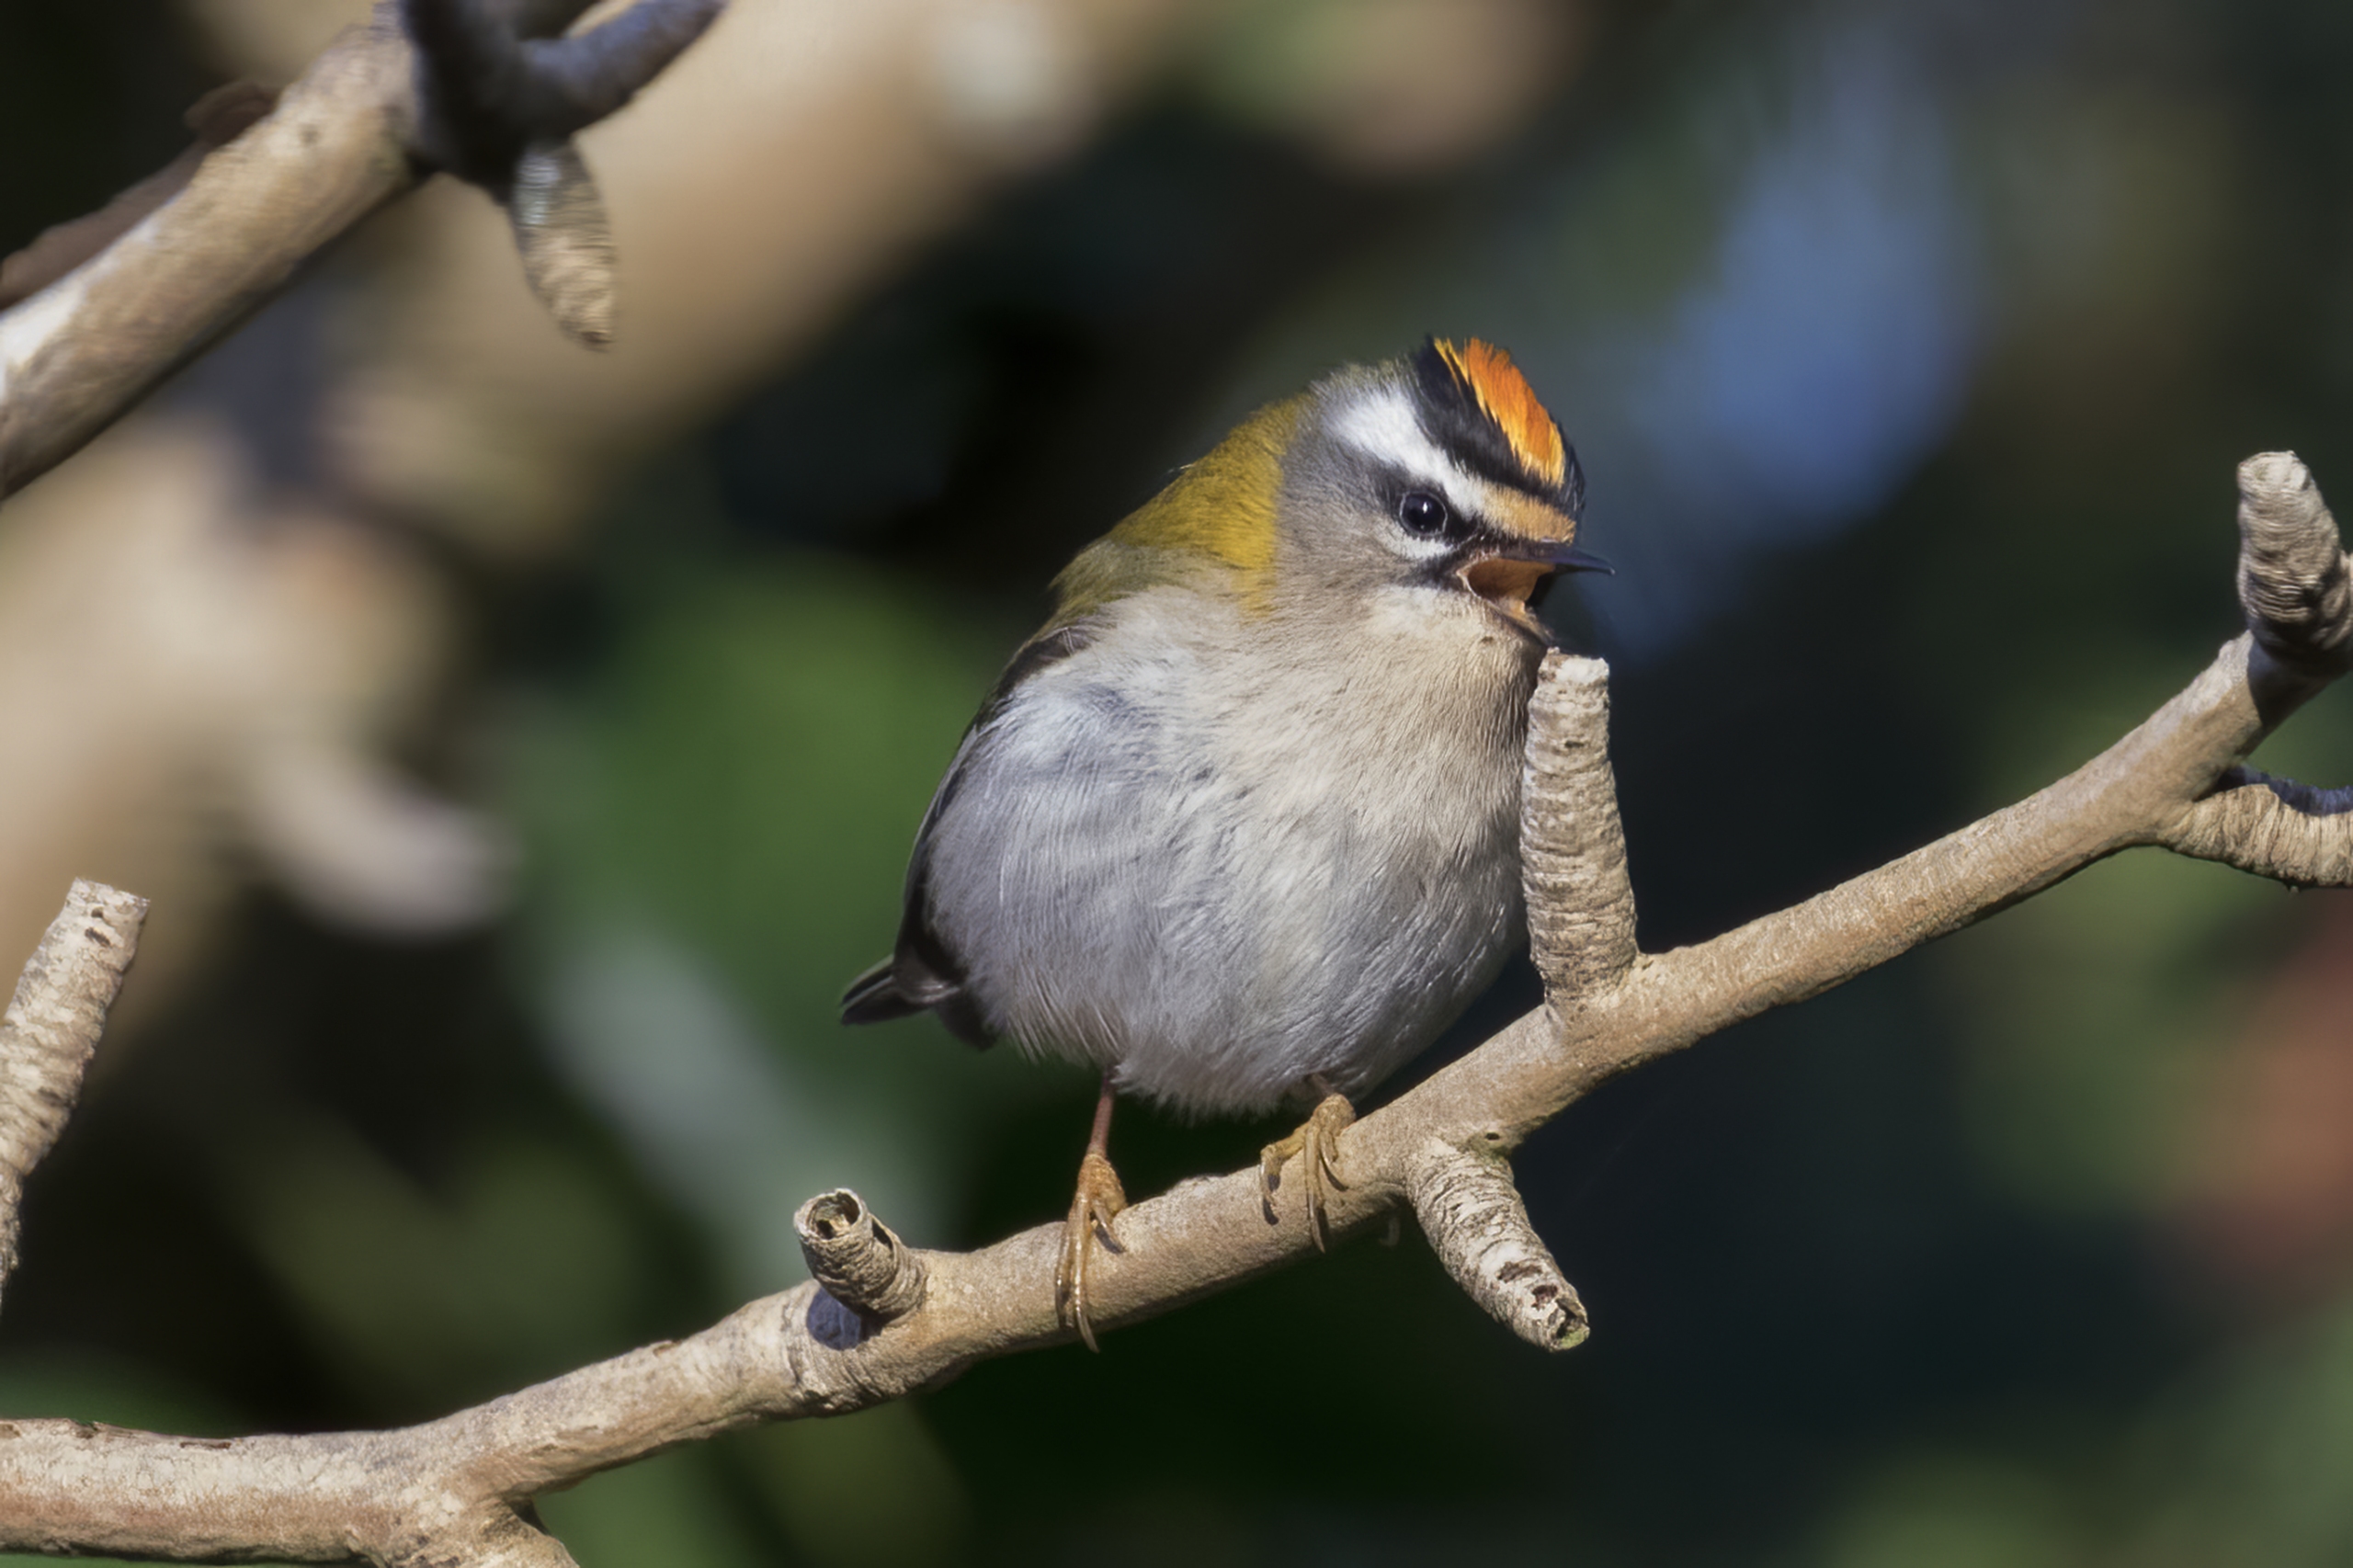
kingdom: Animalia
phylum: Chordata
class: Aves
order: Passeriformes
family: Regulidae
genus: Regulus
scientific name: Regulus ignicapilla
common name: Rødtoppet fuglekonge
